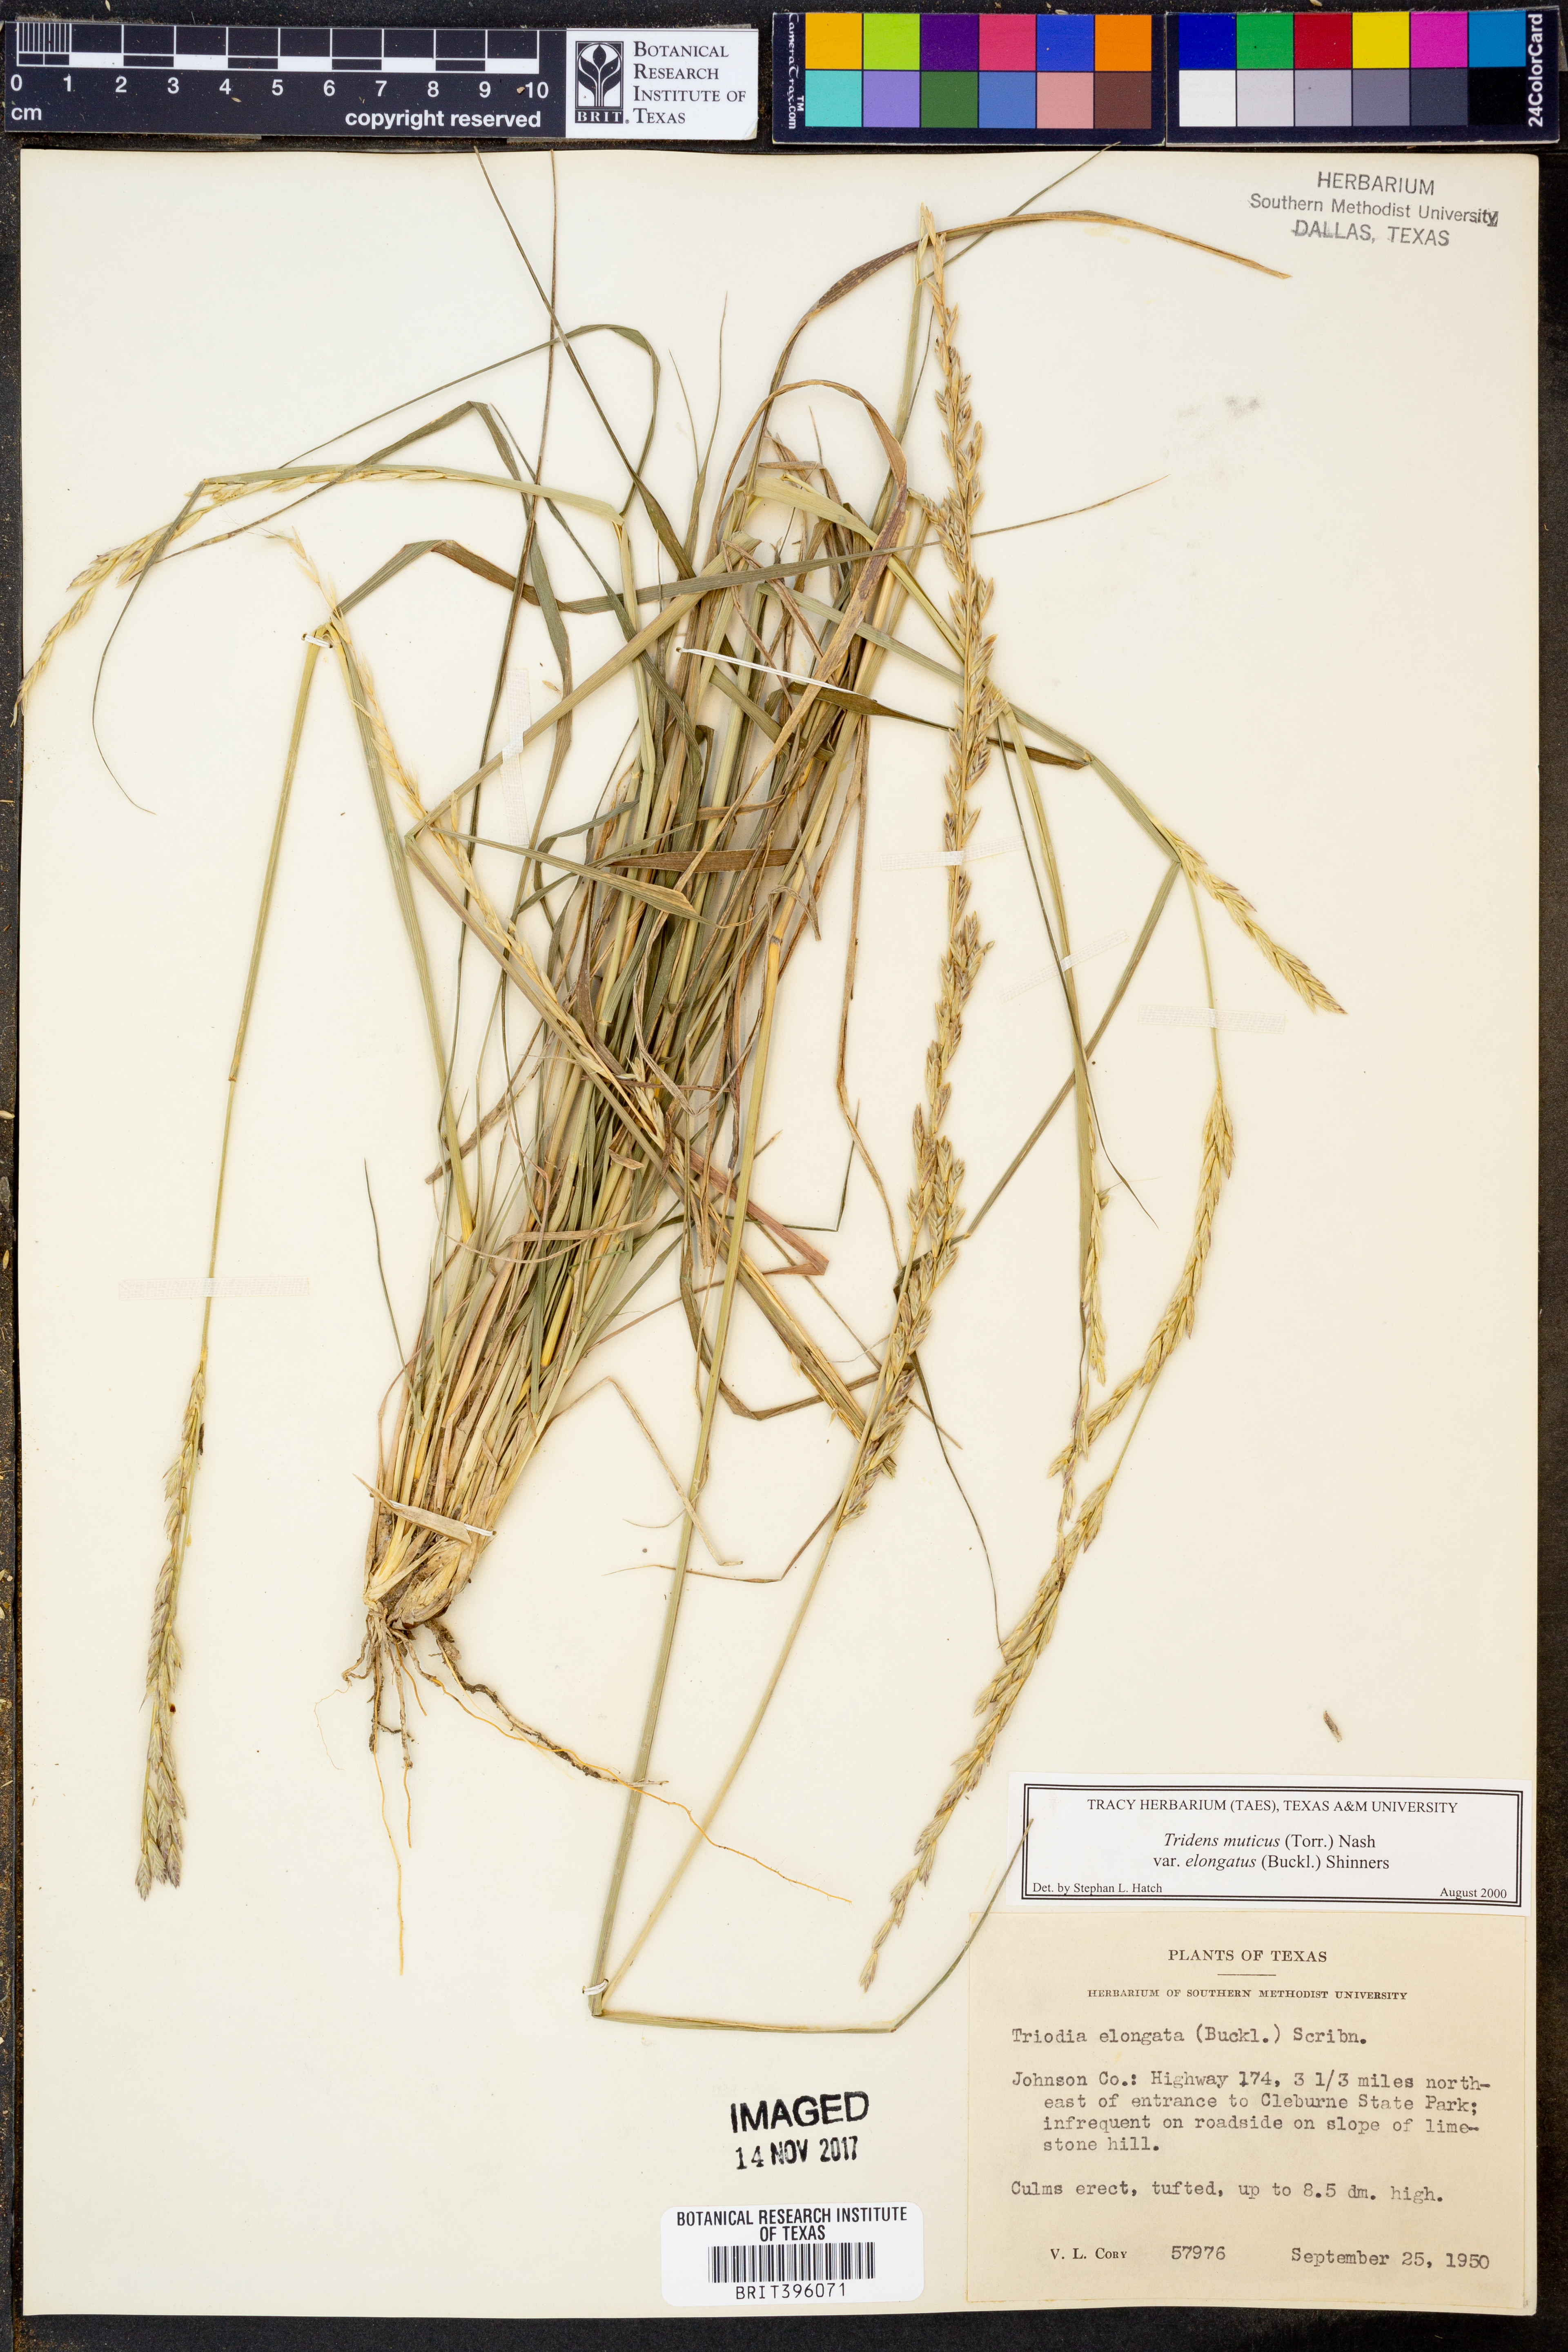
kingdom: Plantae
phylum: Tracheophyta
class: Liliopsida
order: Poales
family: Poaceae
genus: Tridentopsis
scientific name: Tridentopsis mutica
